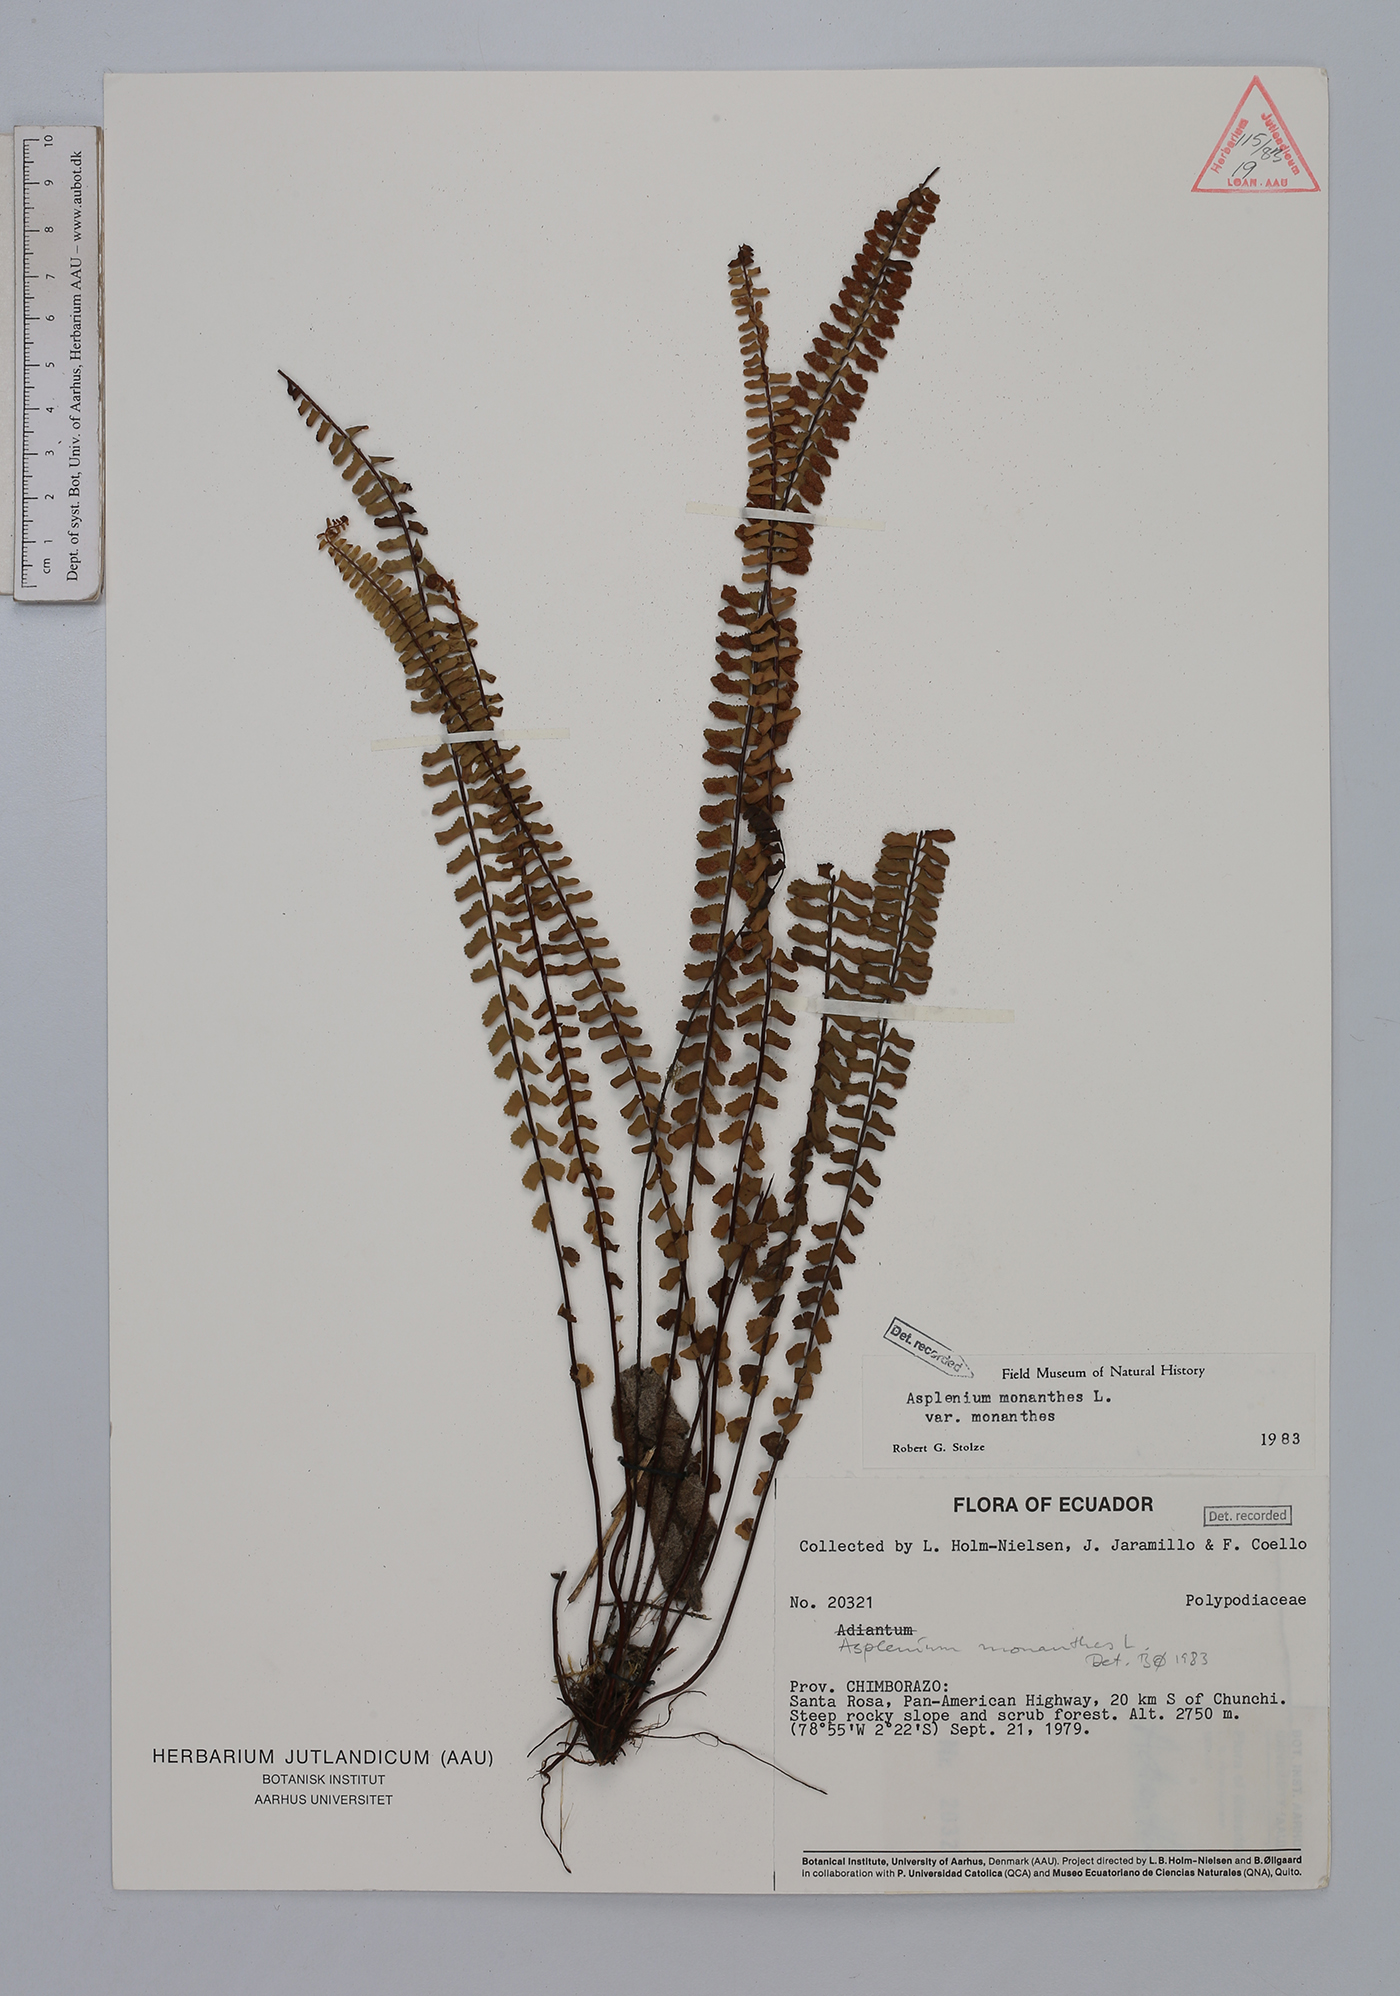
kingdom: Plantae
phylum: Tracheophyta
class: Polypodiopsida
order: Polypodiales
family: Aspleniaceae
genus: Asplenium
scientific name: Asplenium monanthes
